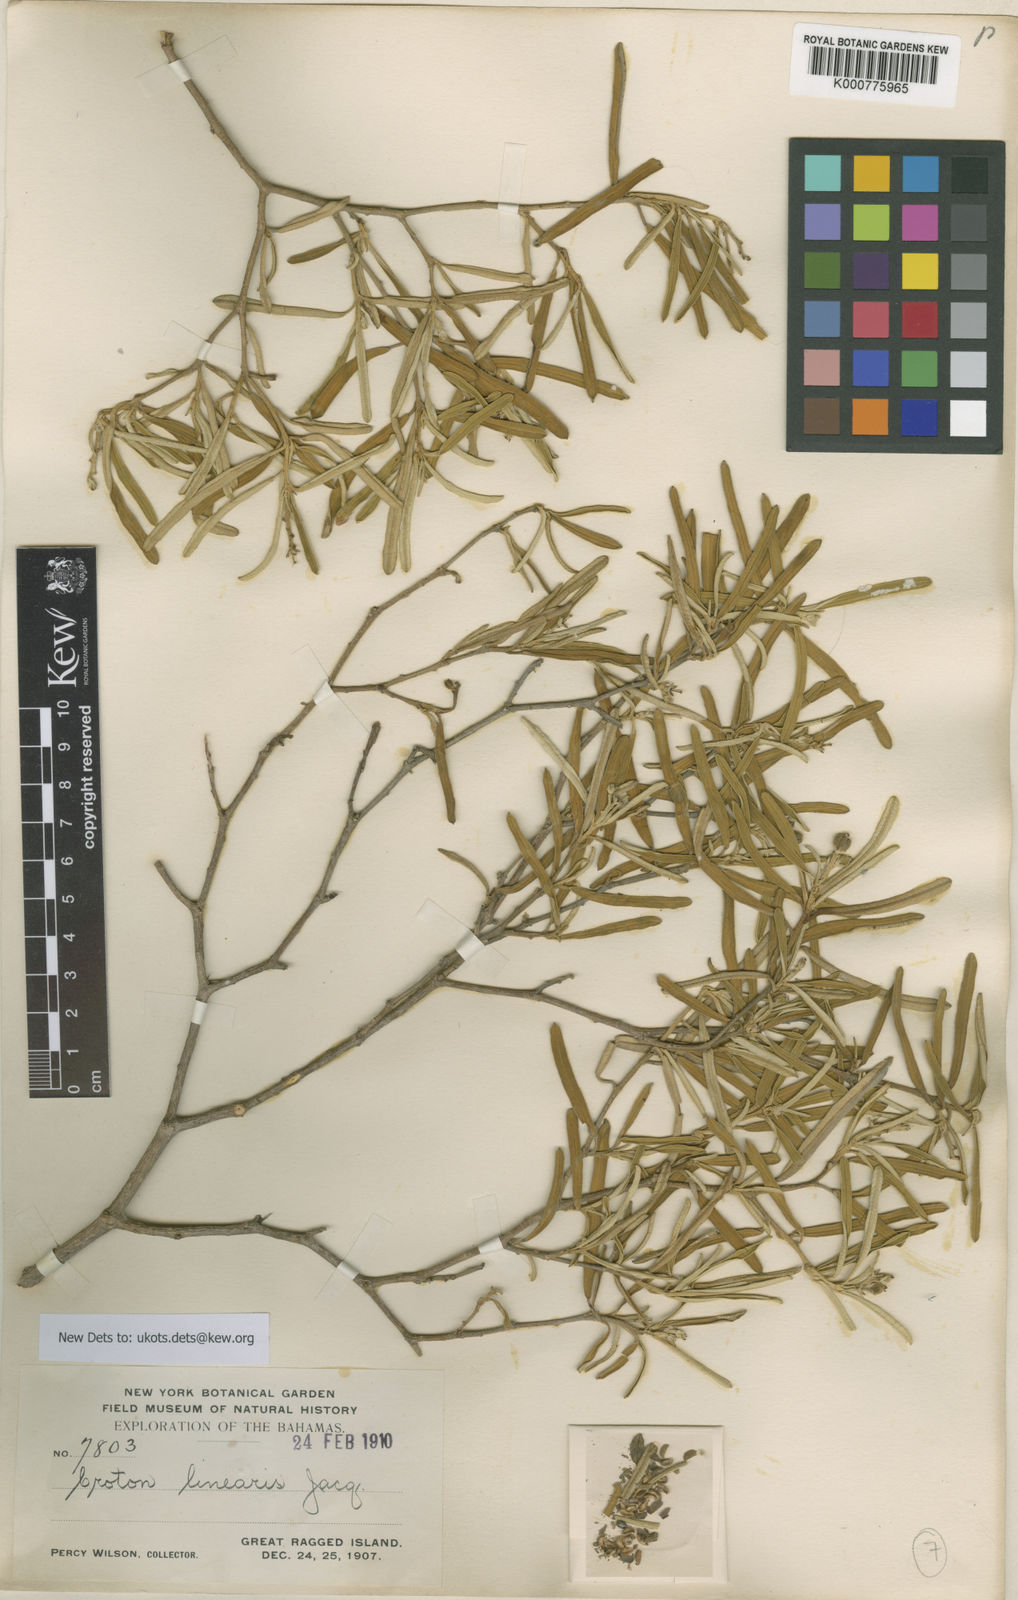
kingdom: Plantae
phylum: Tracheophyta
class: Magnoliopsida
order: Malpighiales
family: Euphorbiaceae
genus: Croton
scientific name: Croton linearis
